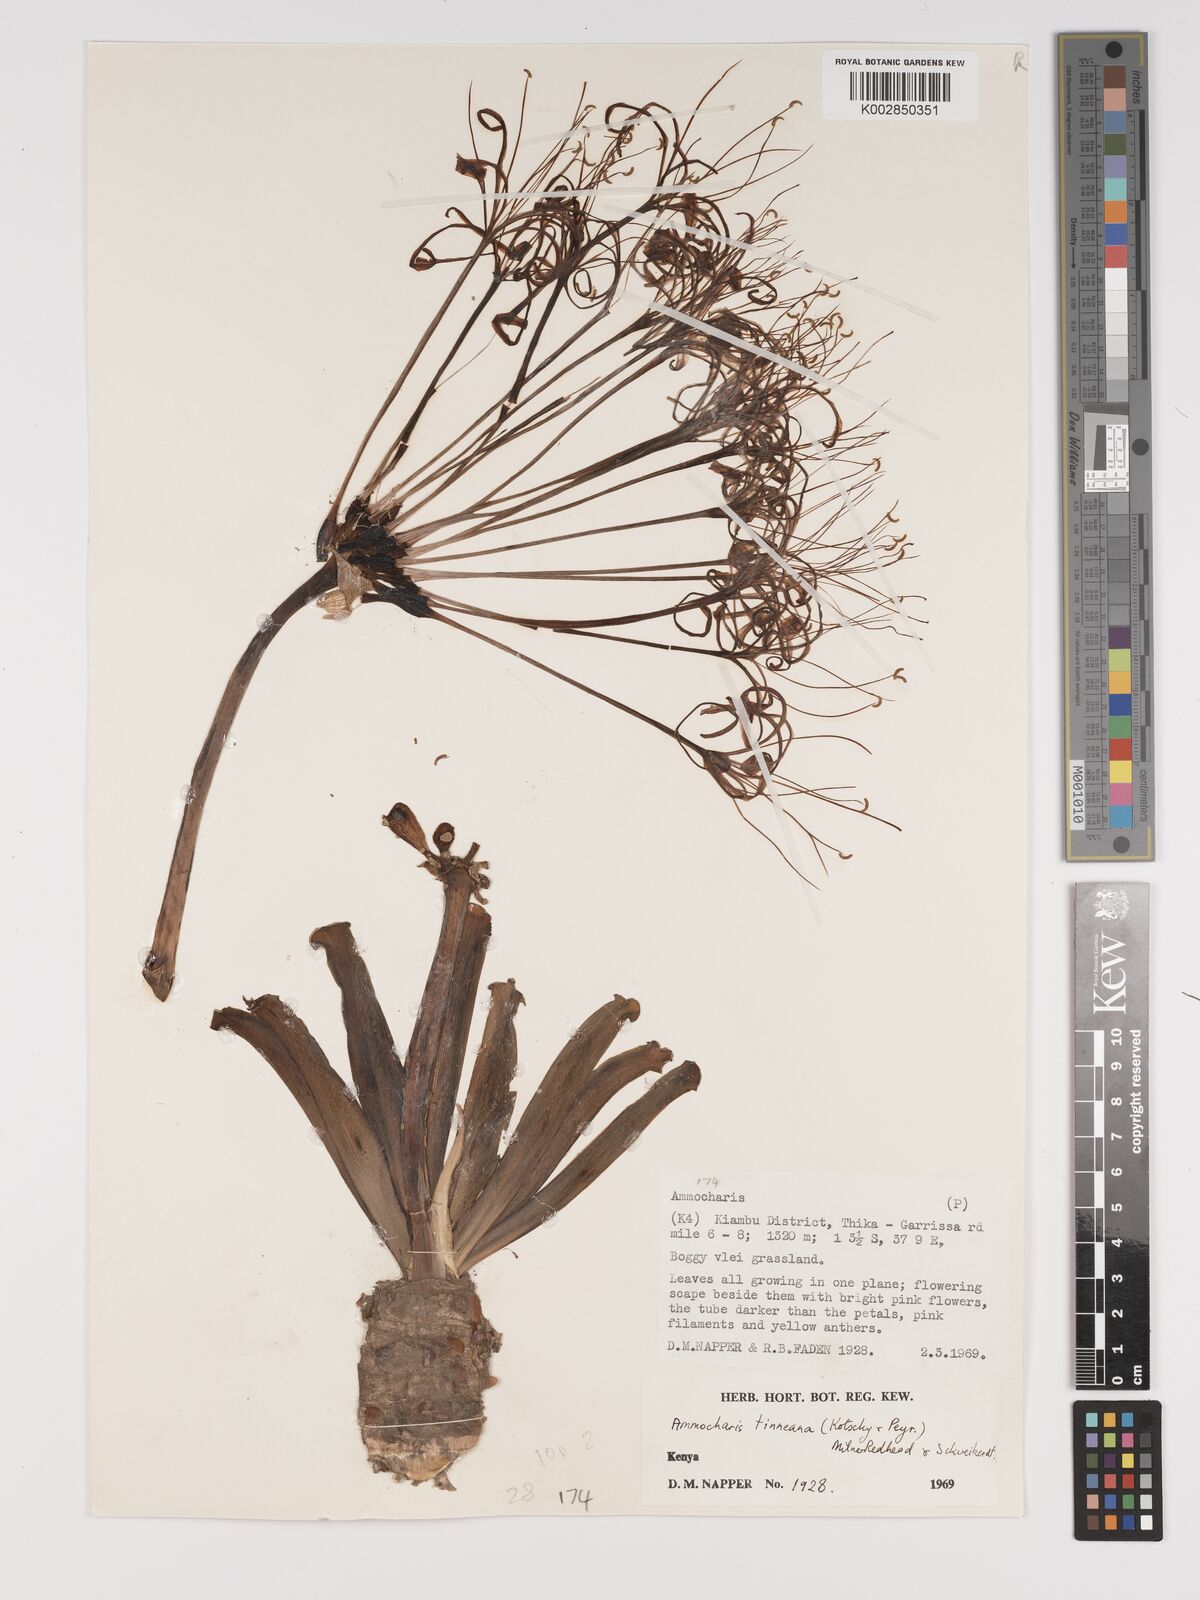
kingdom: Plantae
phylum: Tracheophyta
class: Liliopsida
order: Asparagales
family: Amaryllidaceae
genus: Ammocharis
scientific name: Ammocharis tinneana
